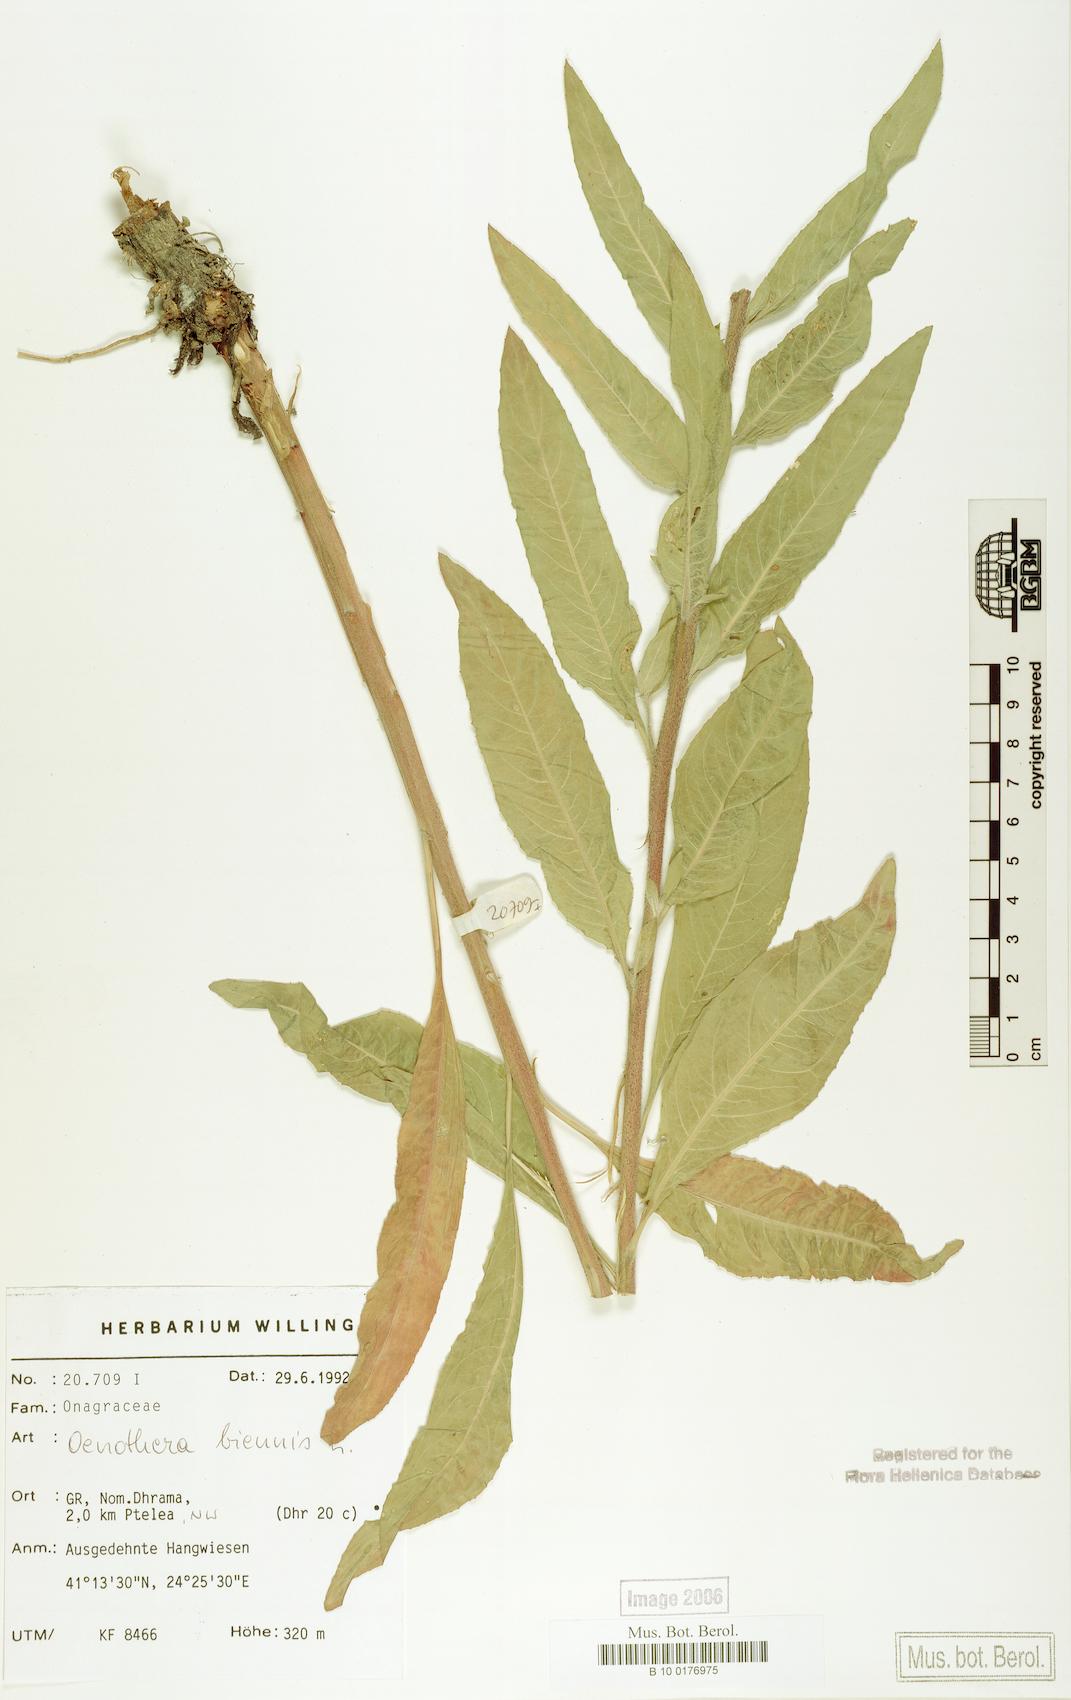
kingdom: Plantae
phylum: Tracheophyta
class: Magnoliopsida
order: Myrtales
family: Onagraceae
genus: Oenothera
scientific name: Oenothera biennis
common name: Common evening-primrose
